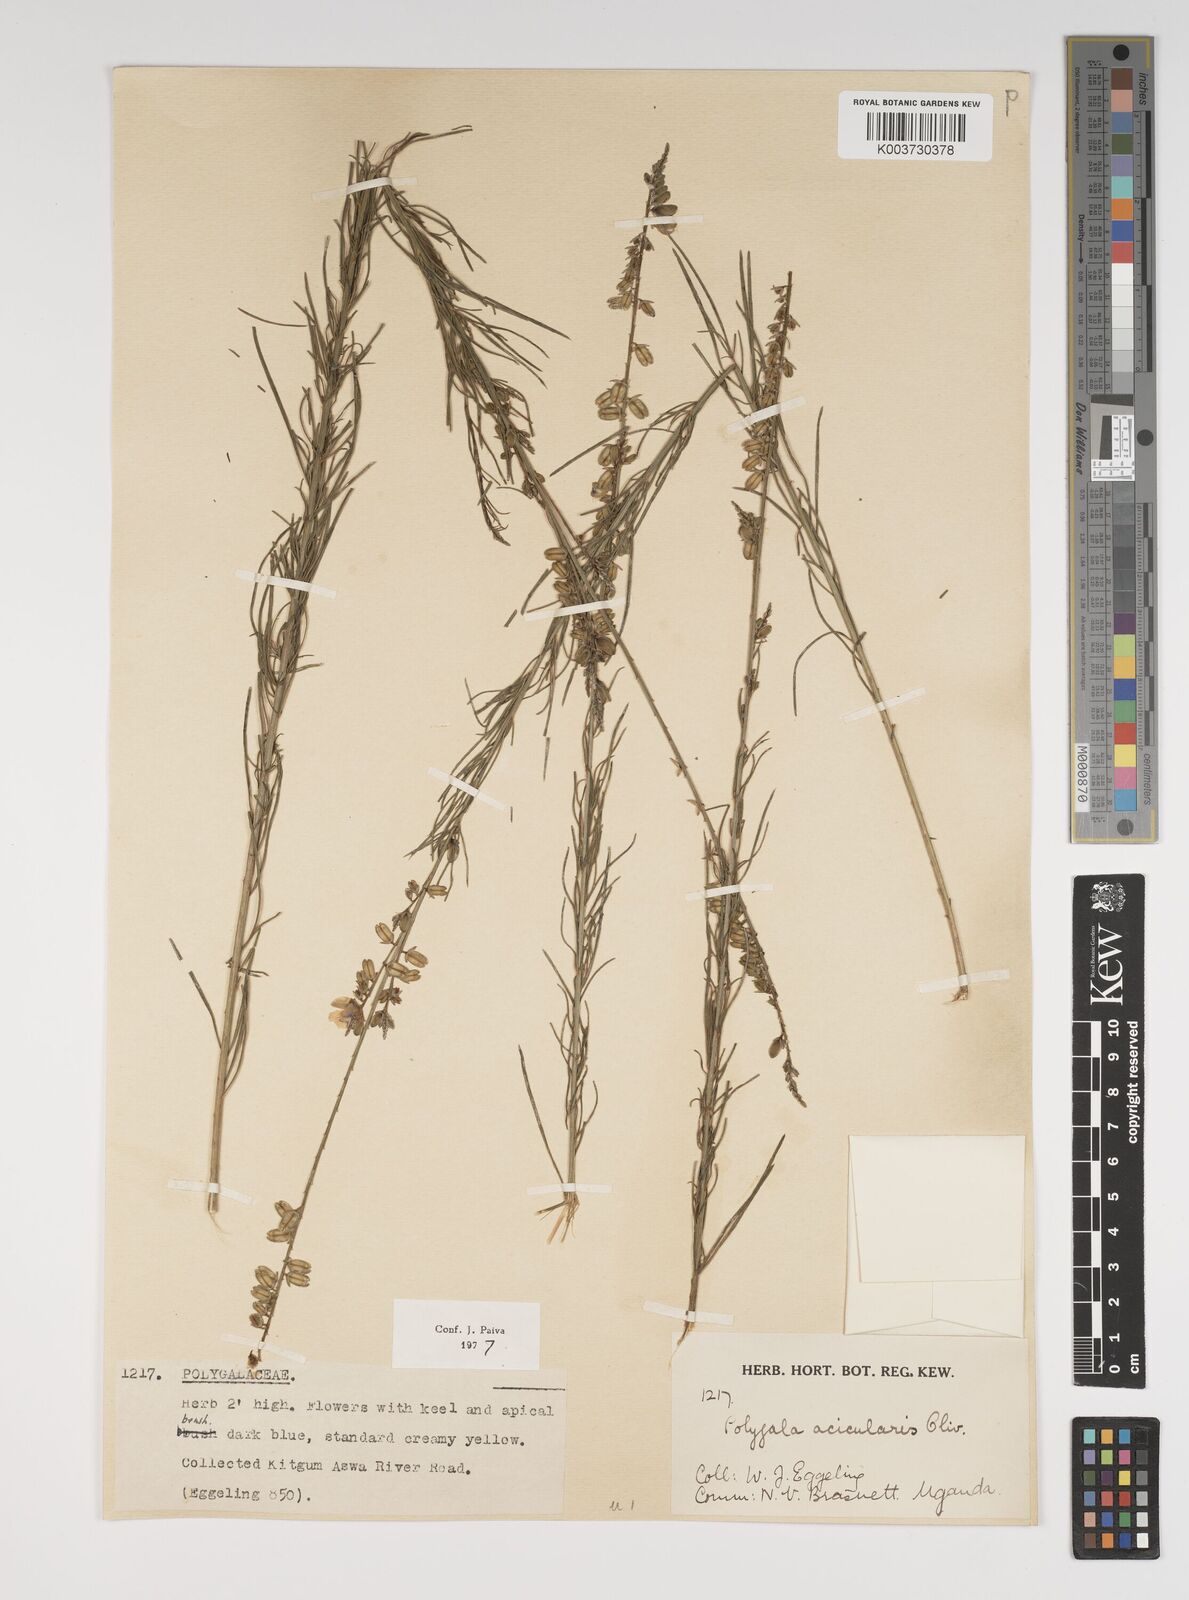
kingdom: Plantae
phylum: Tracheophyta
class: Magnoliopsida
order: Fabales
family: Polygalaceae
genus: Polygala
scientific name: Polygala acicularis
